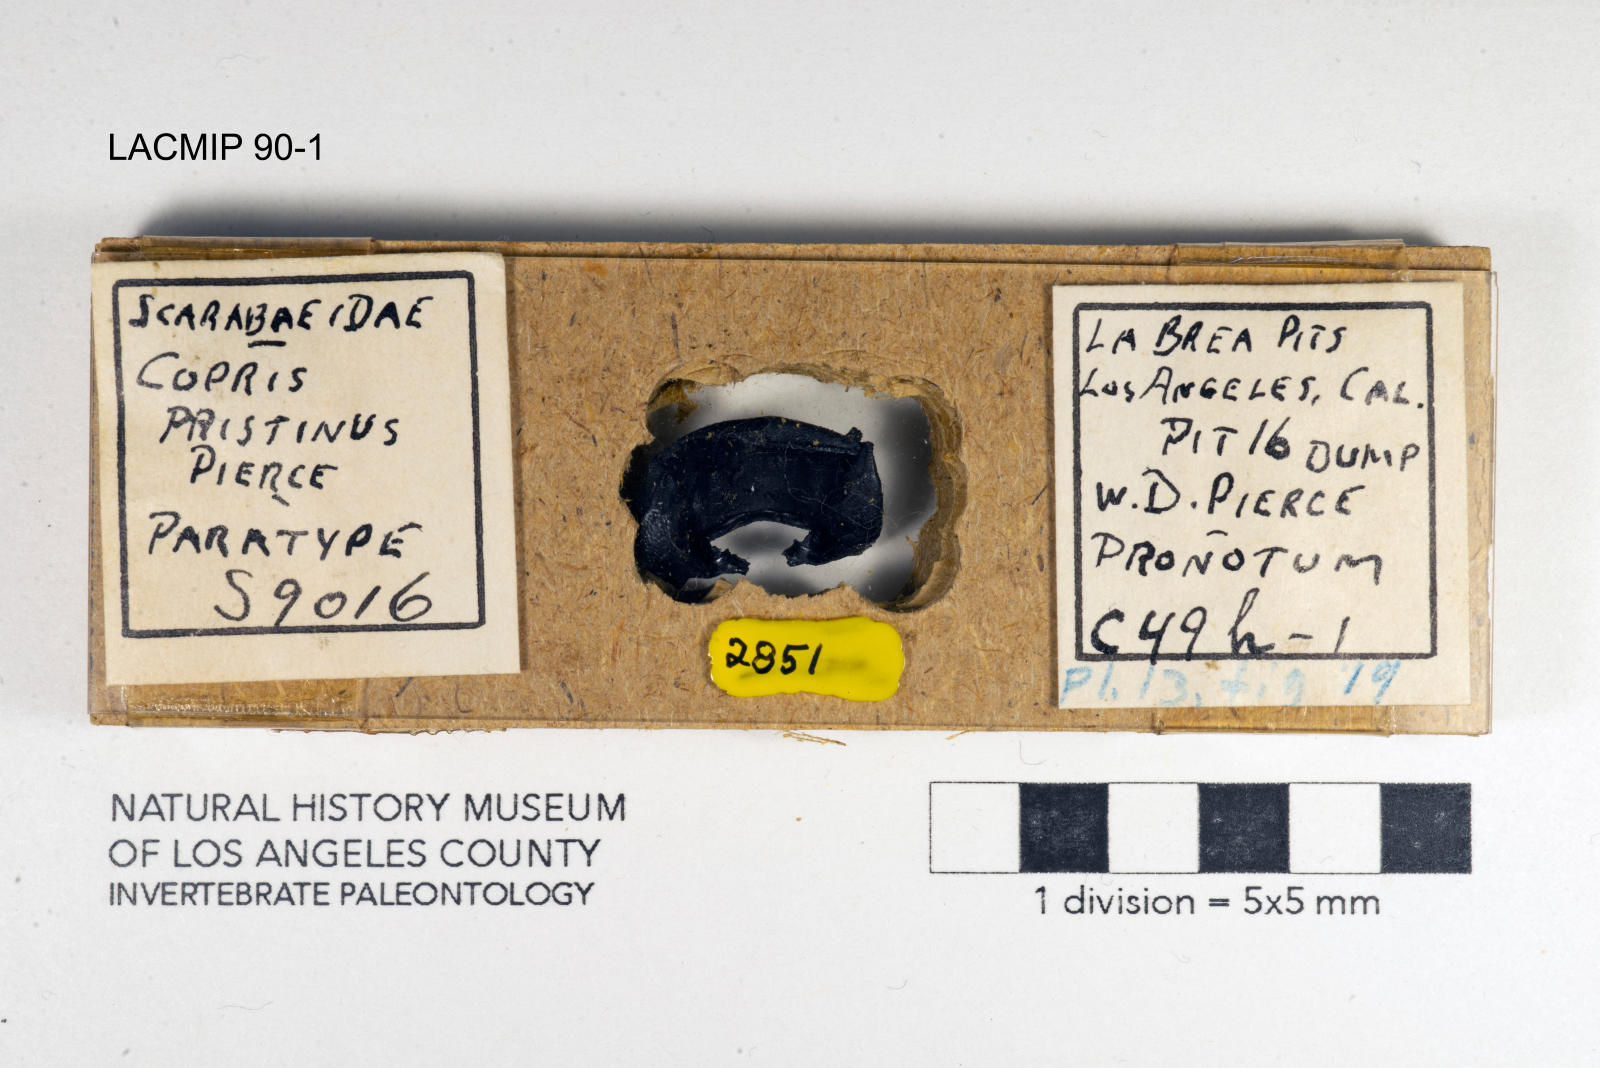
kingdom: Animalia
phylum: Arthropoda
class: Insecta
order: Coleoptera
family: Scarabaeidae
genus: Copris
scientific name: Copris pristinus
